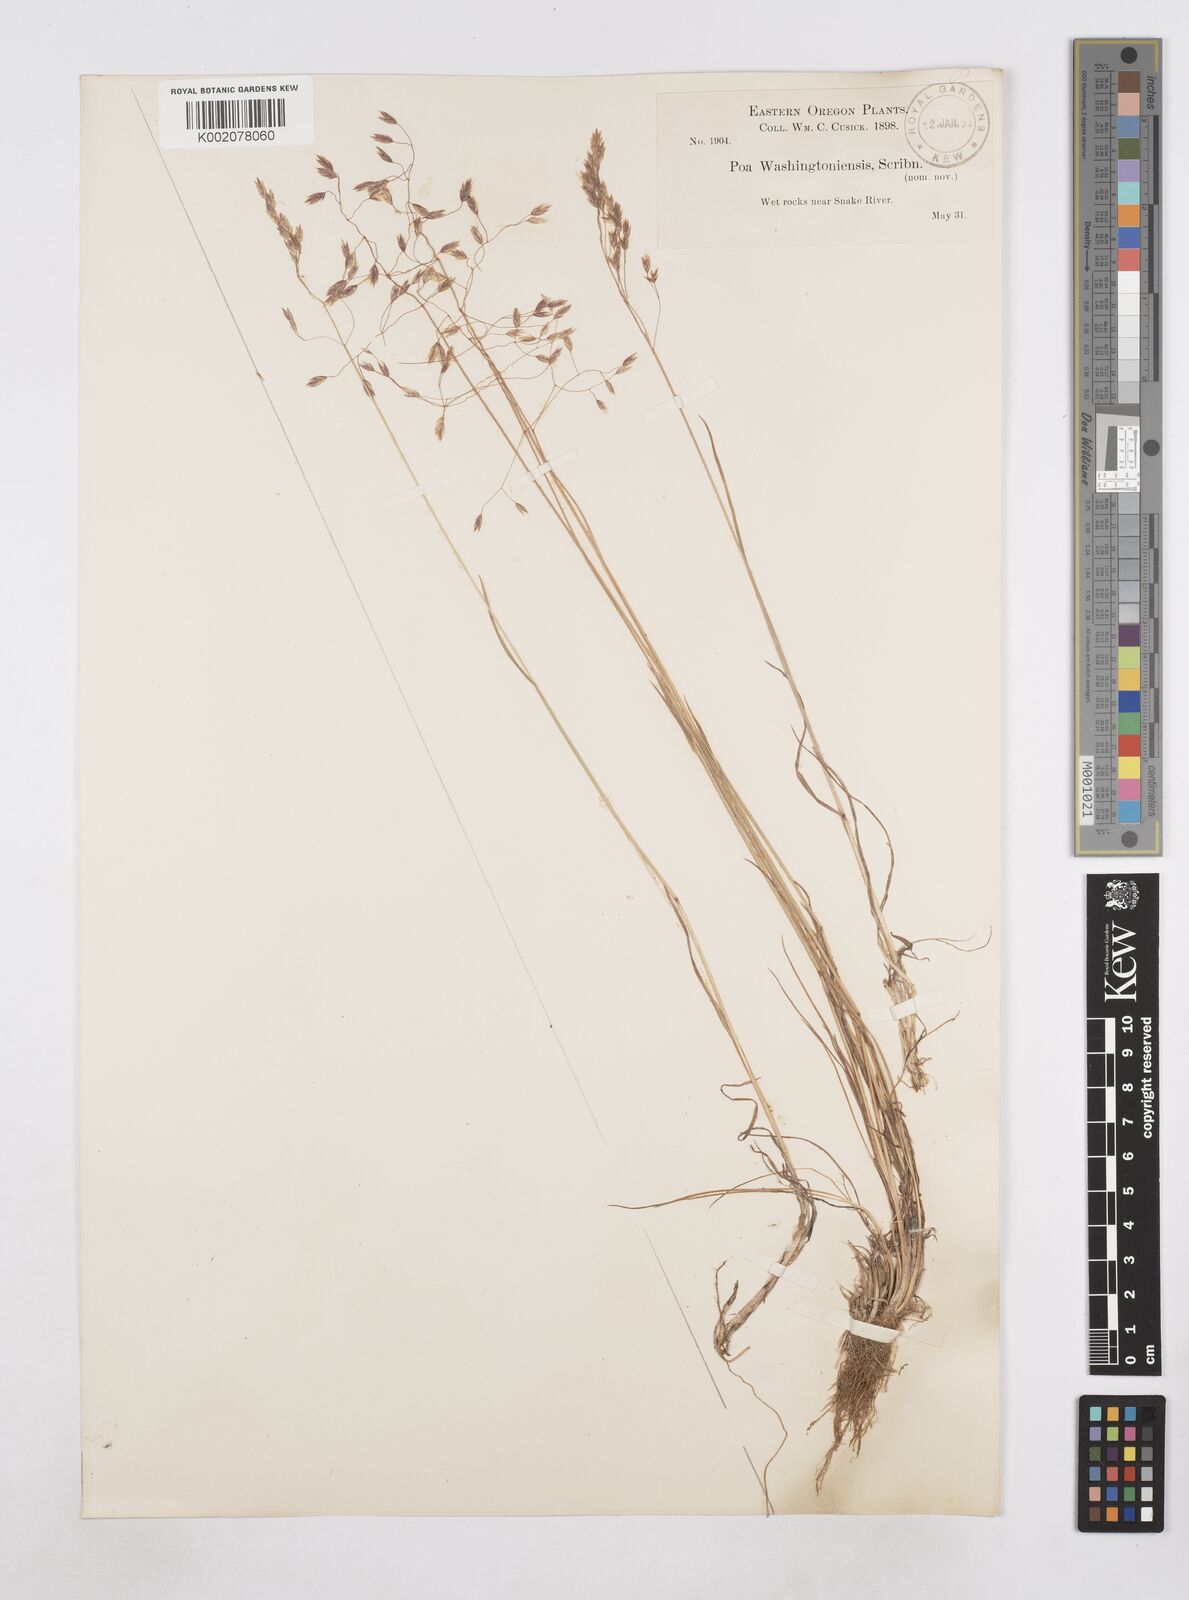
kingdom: Plantae
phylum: Tracheophyta
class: Liliopsida
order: Poales
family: Poaceae
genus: Poa
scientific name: Poa
